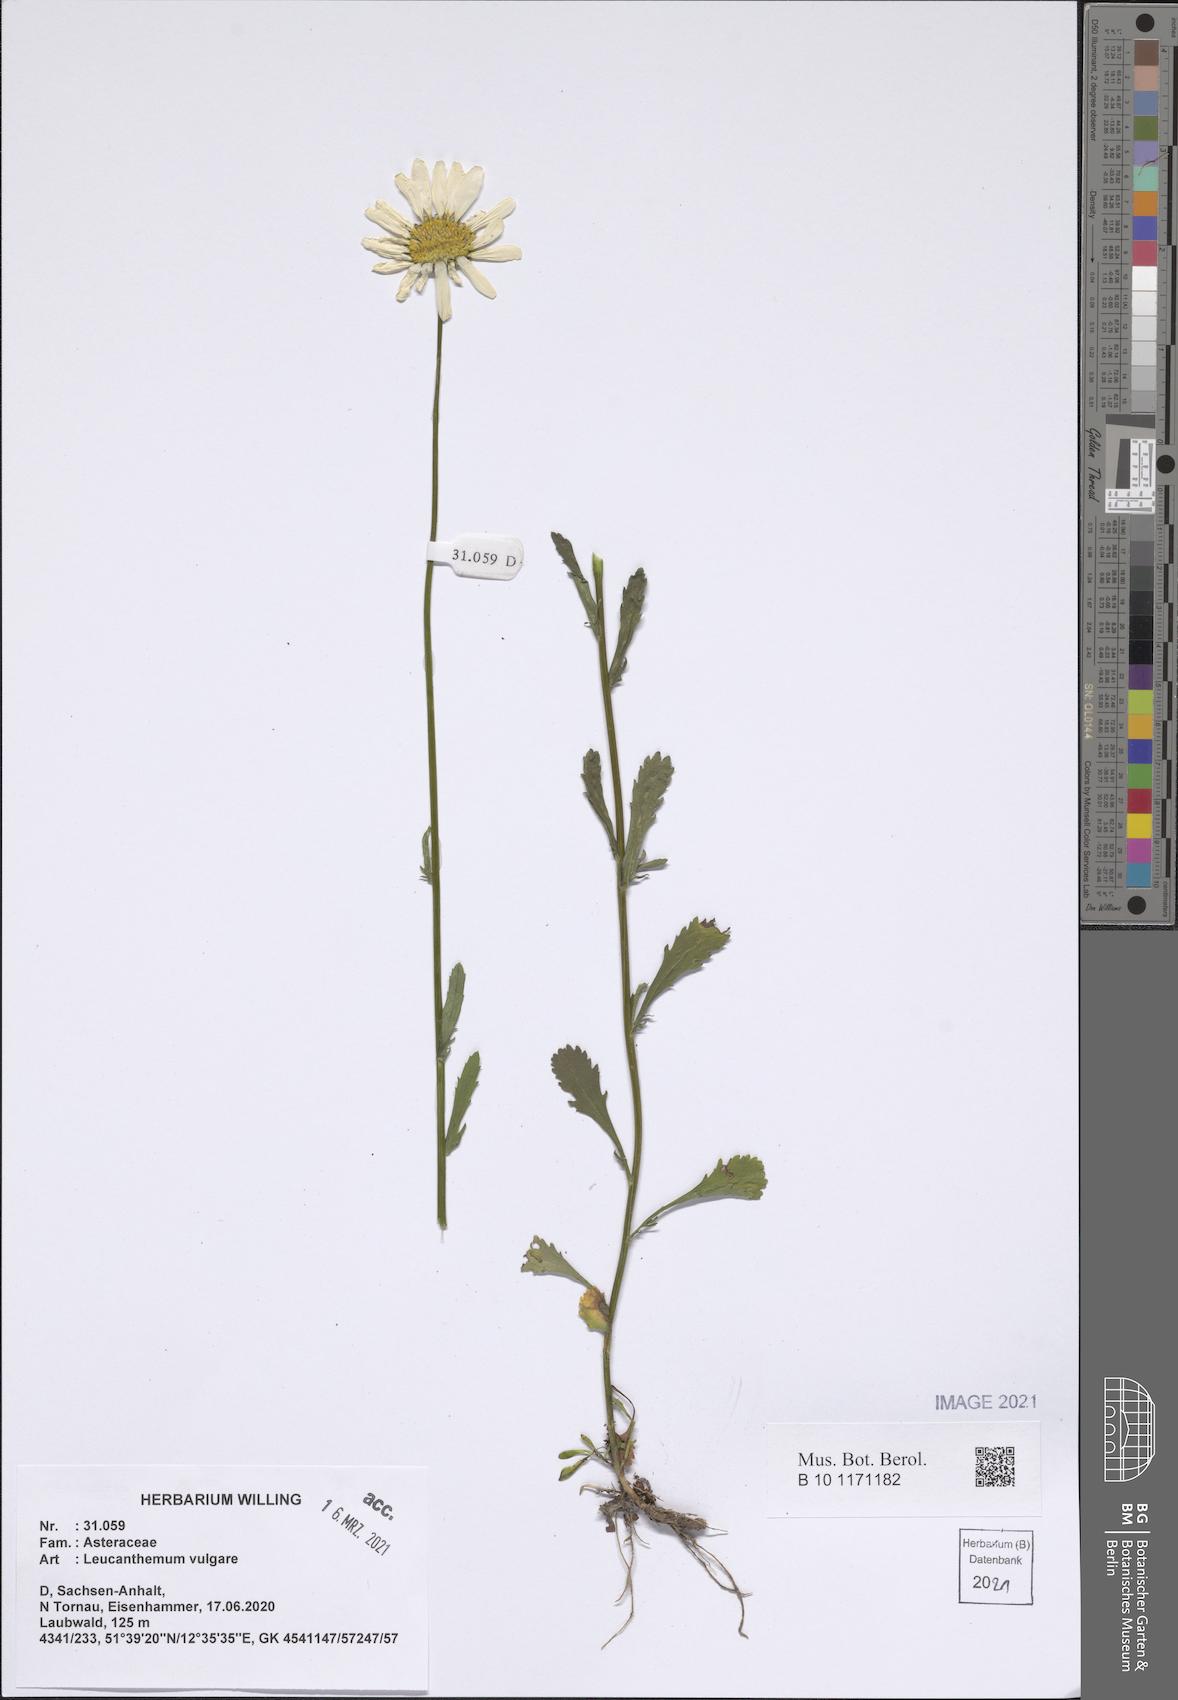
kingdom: Plantae
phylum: Tracheophyta
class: Magnoliopsida
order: Asterales
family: Asteraceae
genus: Leucanthemum
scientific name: Leucanthemum vulgare
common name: Oxeye daisy
